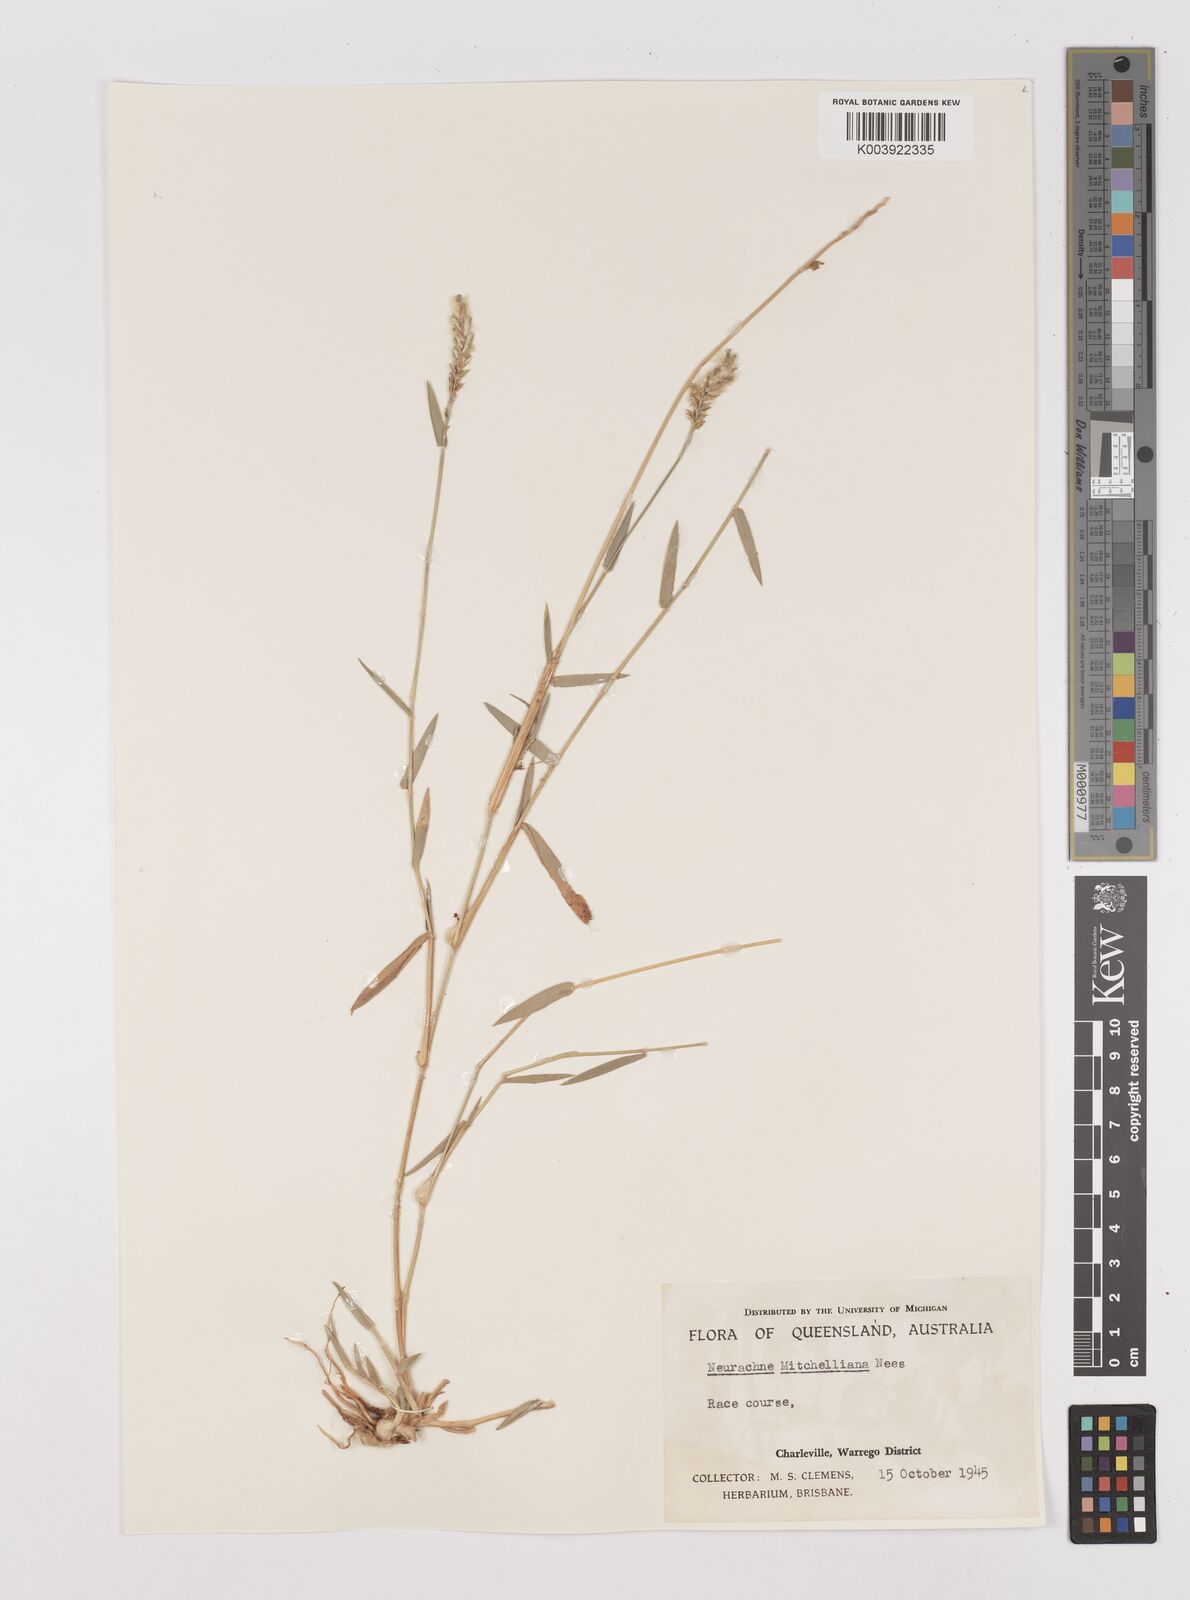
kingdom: Plantae
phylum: Tracheophyta
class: Liliopsida
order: Poales
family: Poaceae
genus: Thyridolepis
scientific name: Thyridolepis mitchelliana
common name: Rock tassel grass
